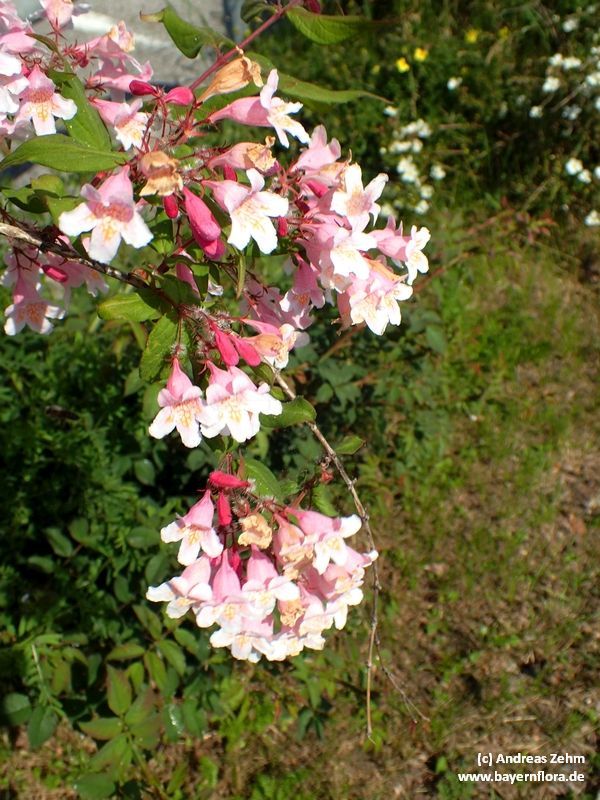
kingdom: Plantae
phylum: Tracheophyta
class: Magnoliopsida
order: Dipsacales
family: Caprifoliaceae
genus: Kolkwitzia
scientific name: Kolkwitzia amabilis
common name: Beautybush
